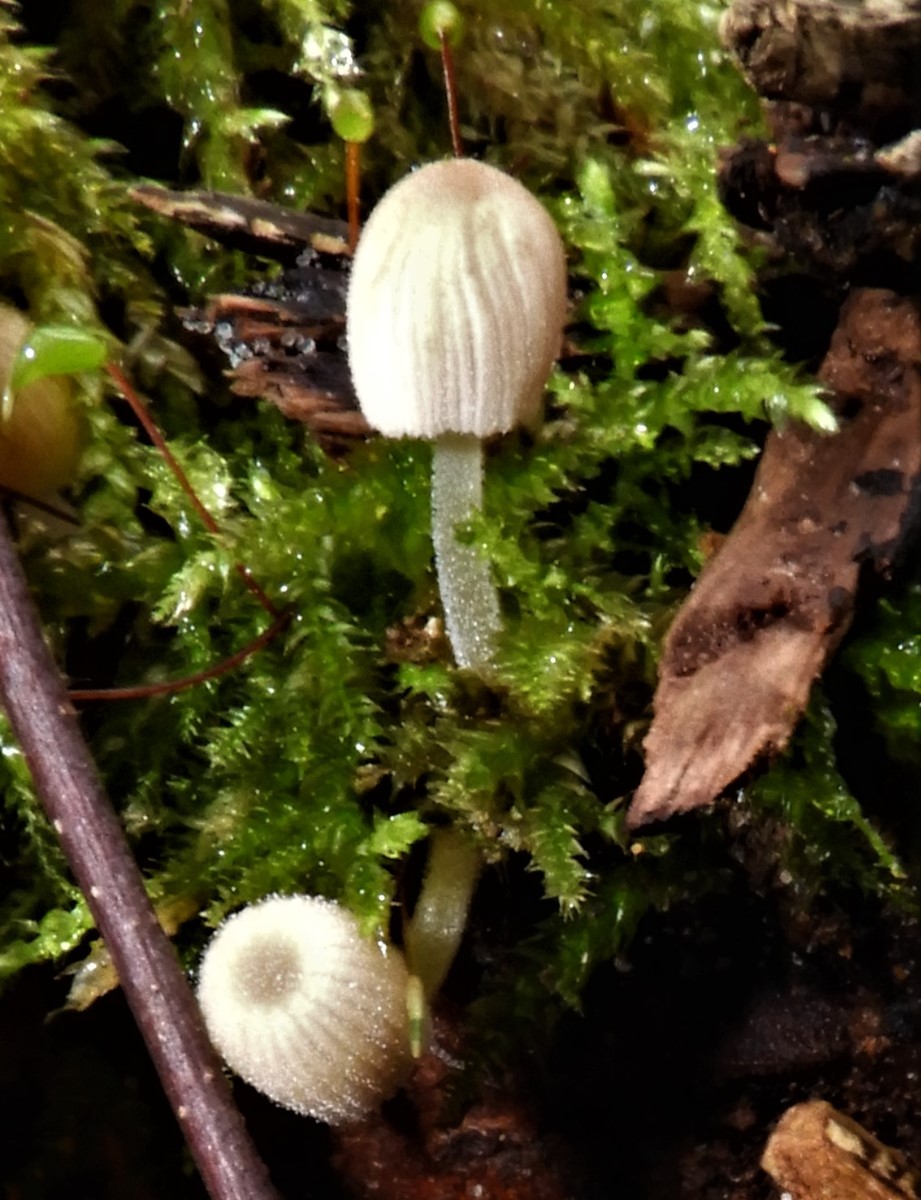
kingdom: Fungi
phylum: Basidiomycota
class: Agaricomycetes
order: Agaricales
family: Psathyrellaceae
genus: Coprinellus
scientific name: Coprinellus
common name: blækhat
